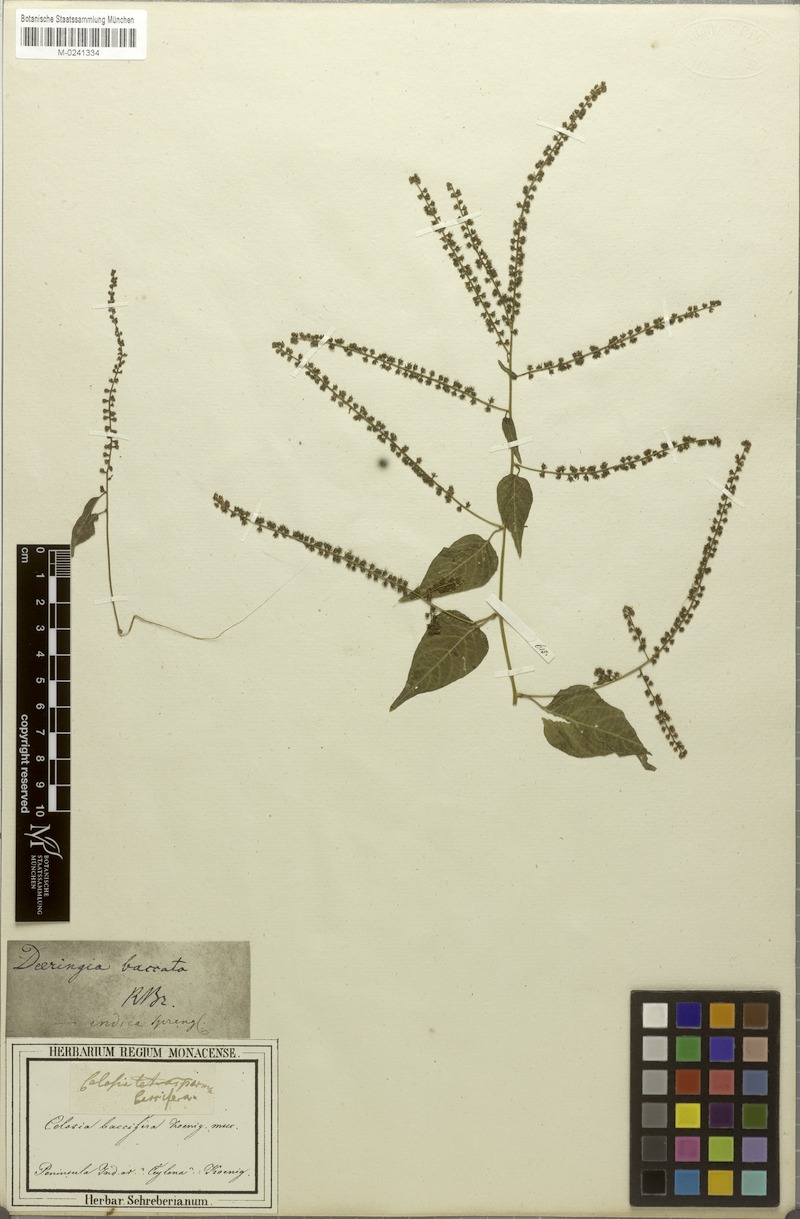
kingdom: Plantae
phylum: Tracheophyta
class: Magnoliopsida
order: Caryophyllales
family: Amaranthaceae
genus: Deeringia
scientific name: Deeringia amaranthoides
